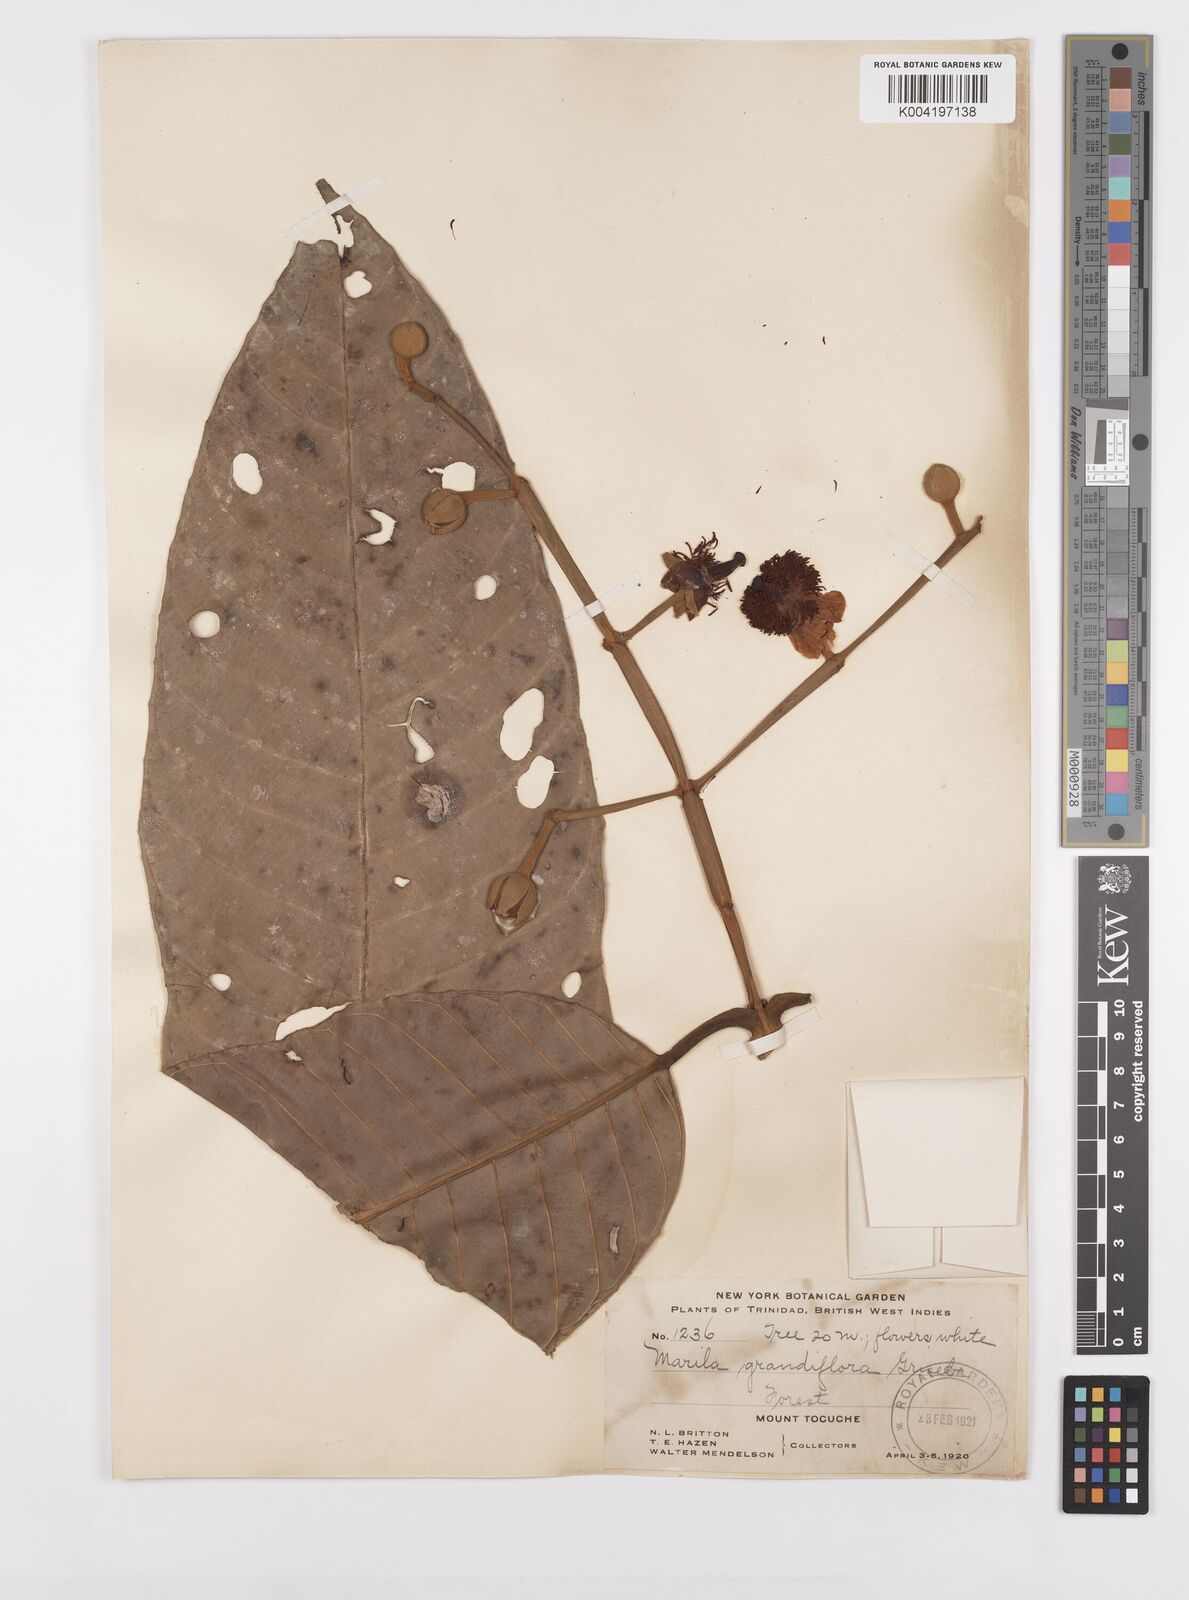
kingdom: Plantae
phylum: Tracheophyta
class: Magnoliopsida
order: Malpighiales
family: Calophyllaceae
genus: Marila
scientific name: Marila grandiflora
